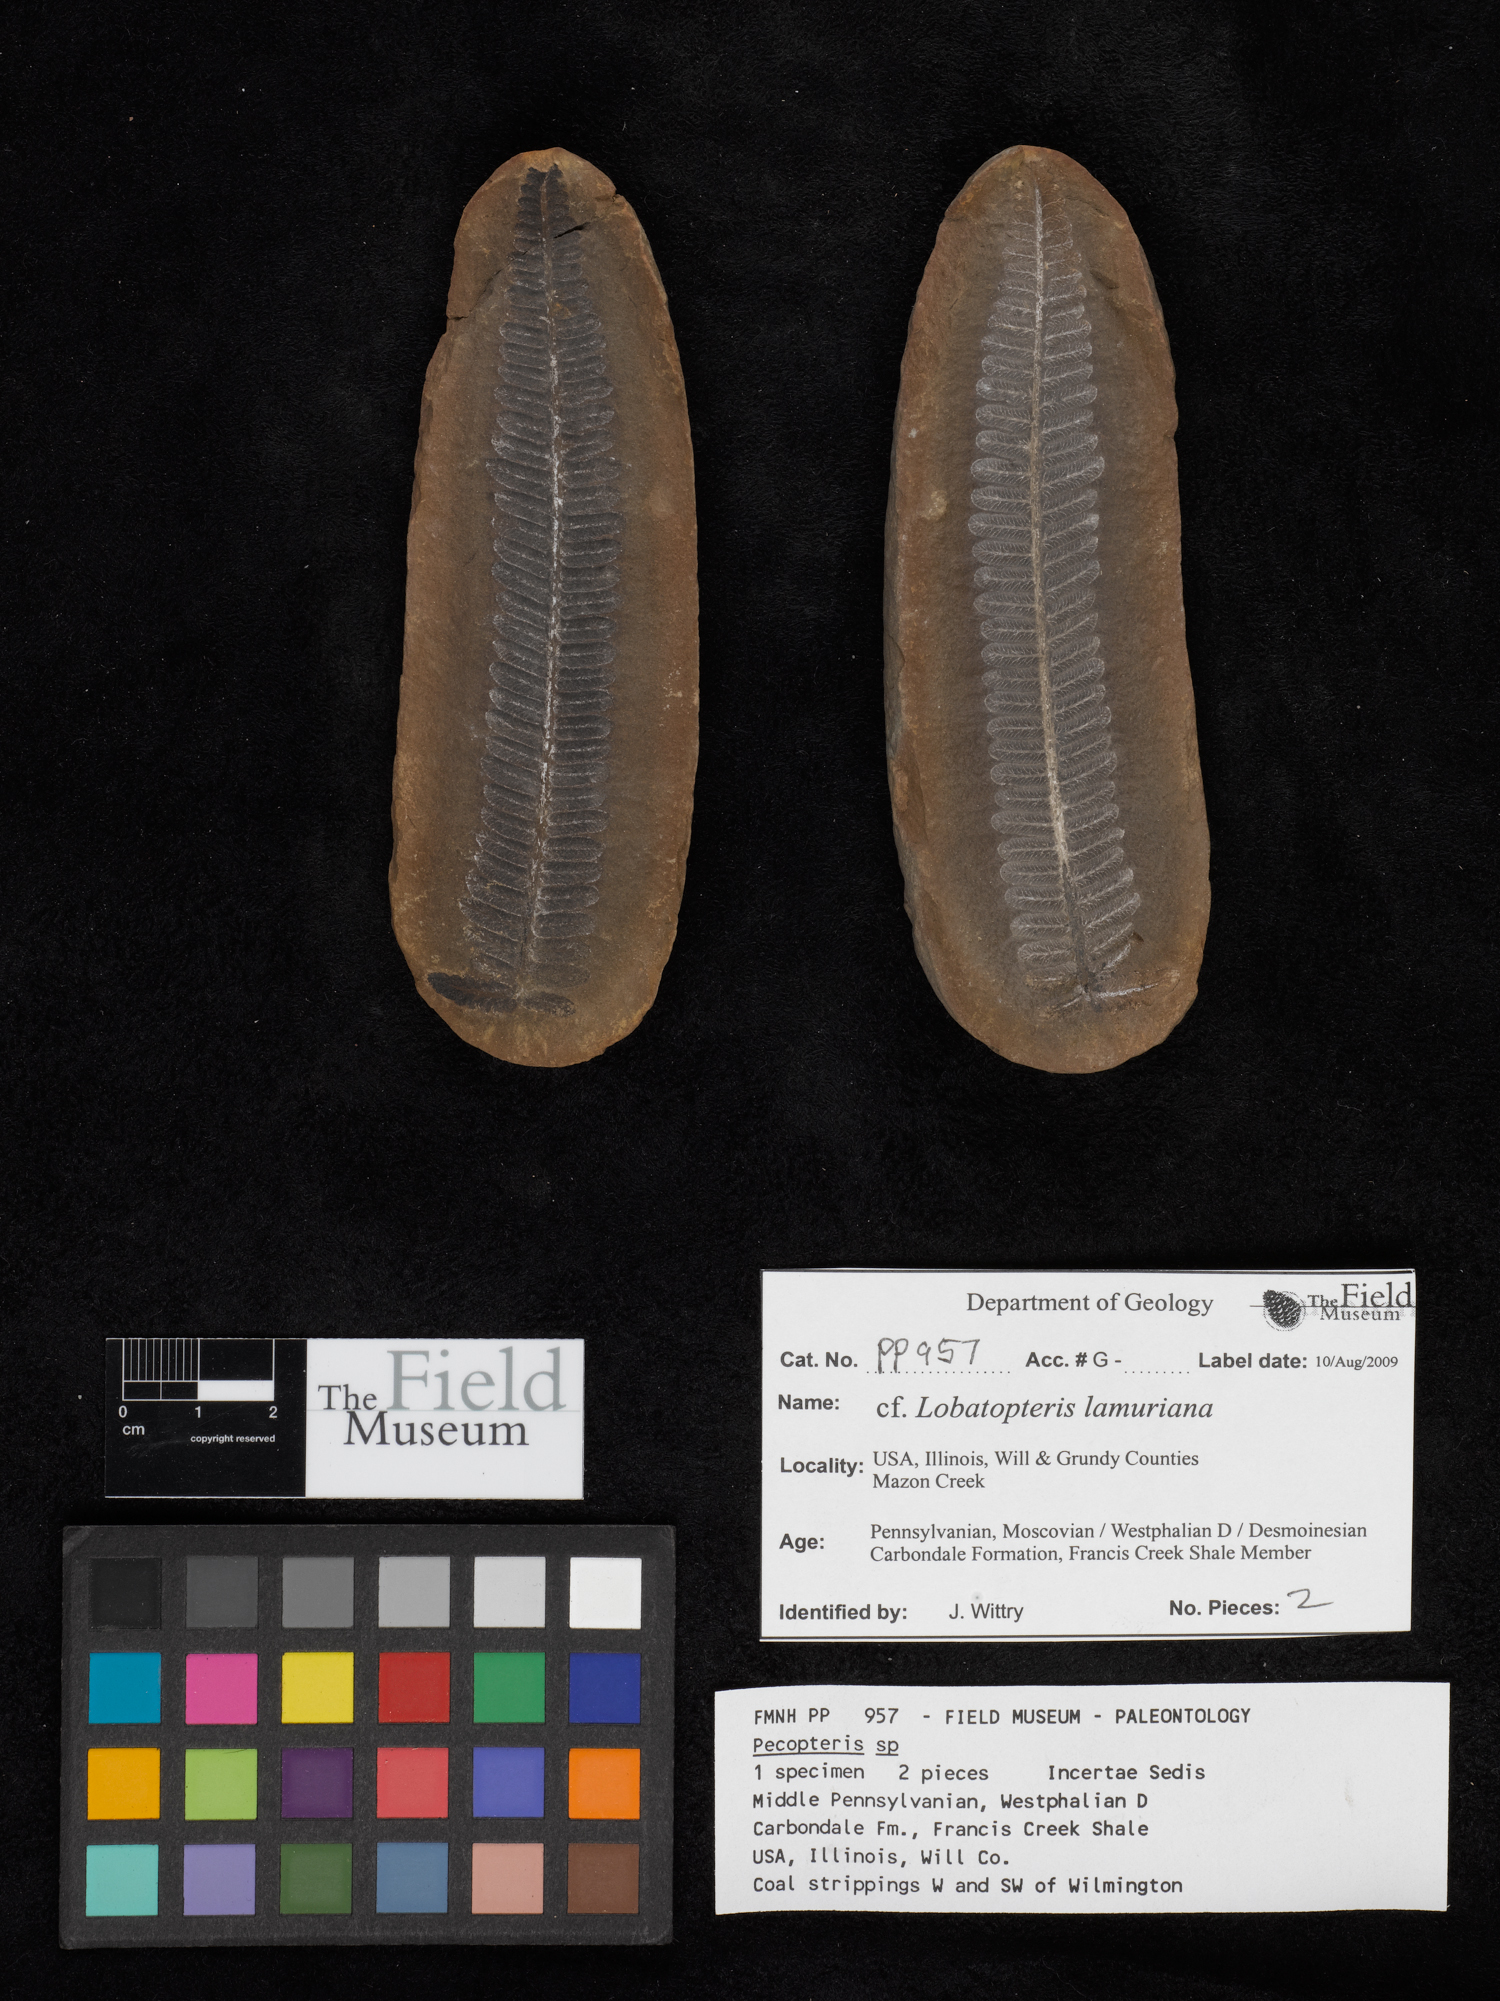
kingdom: Plantae
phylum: Tracheophyta
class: Polypodiopsida
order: Marattiales
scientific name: Marattiales
